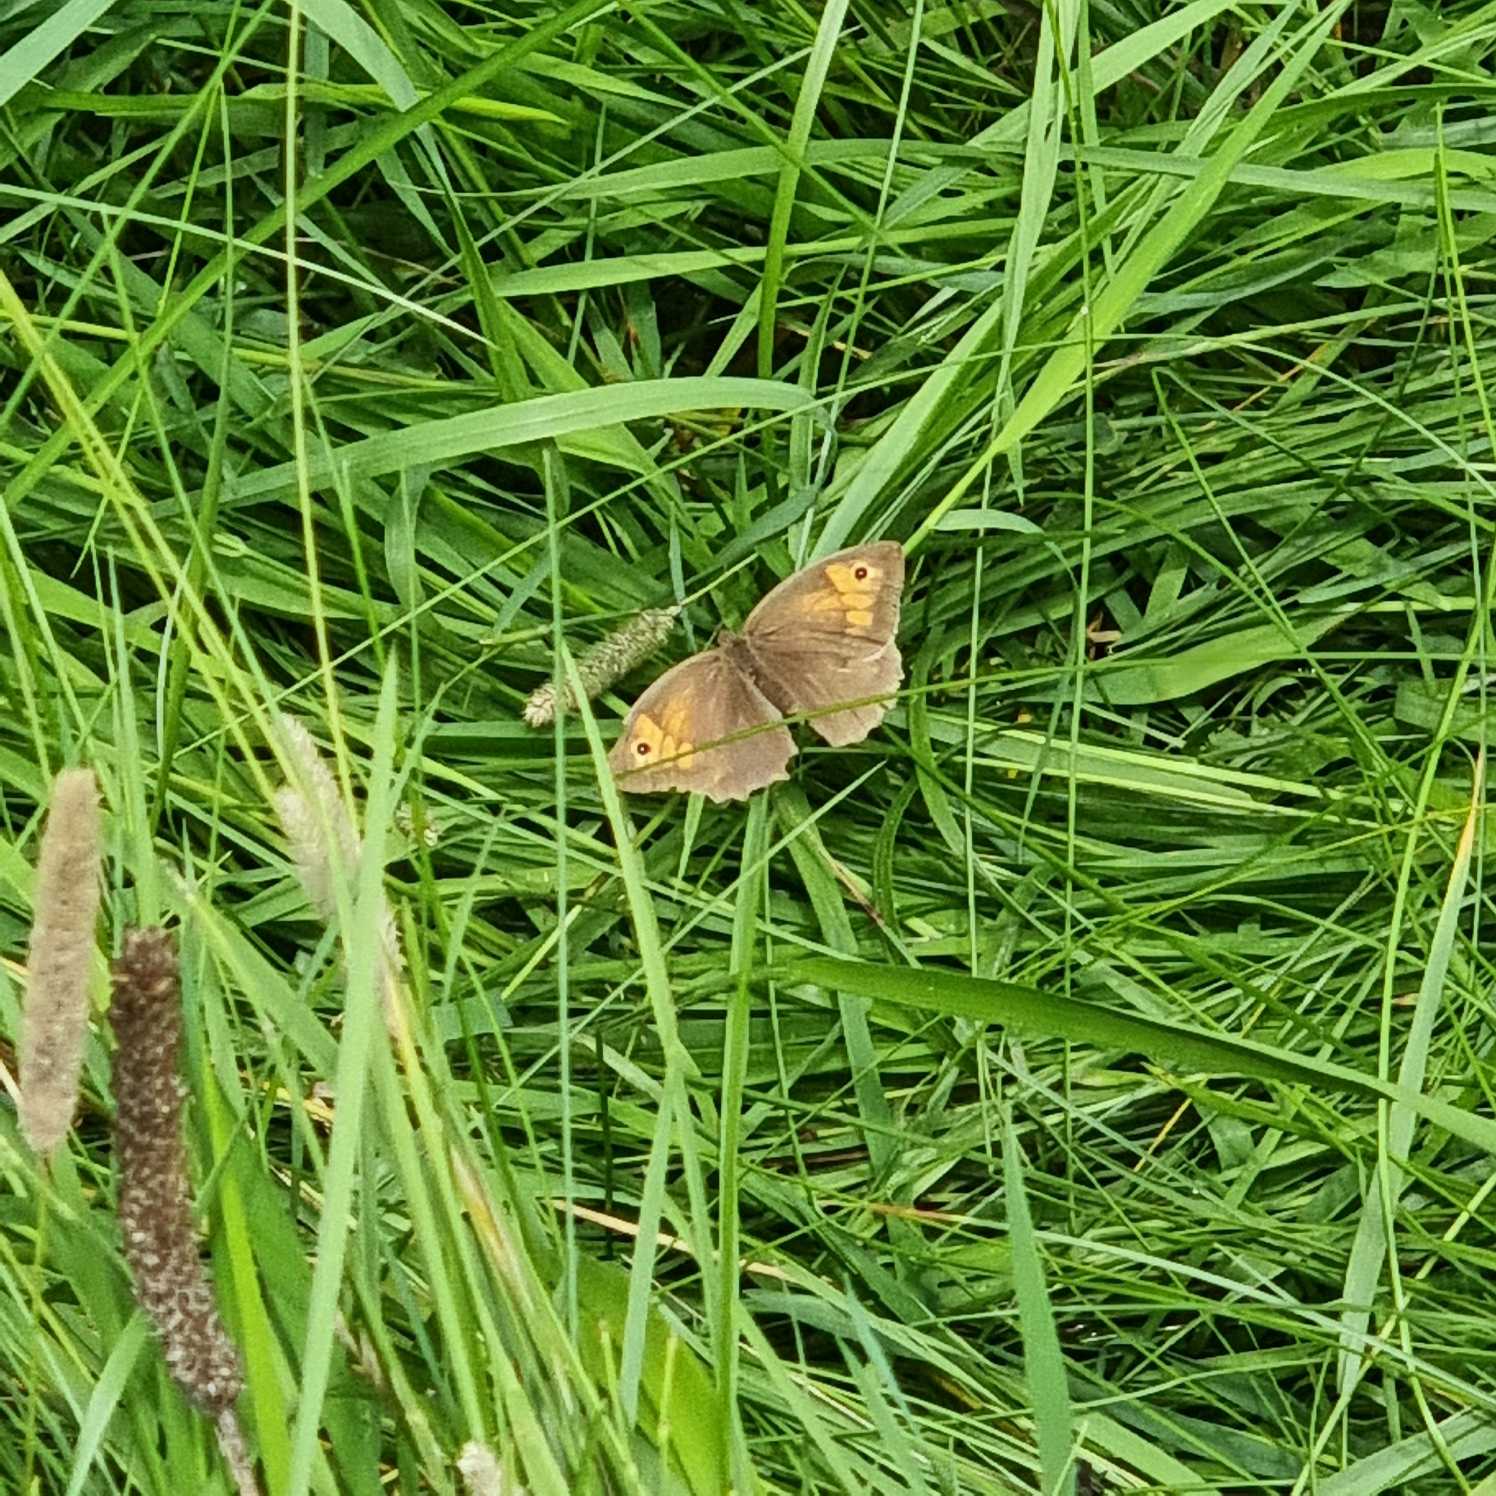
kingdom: Animalia
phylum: Arthropoda
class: Insecta
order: Lepidoptera
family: Nymphalidae
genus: Maniola
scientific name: Maniola jurtina
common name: Græsrandøje
